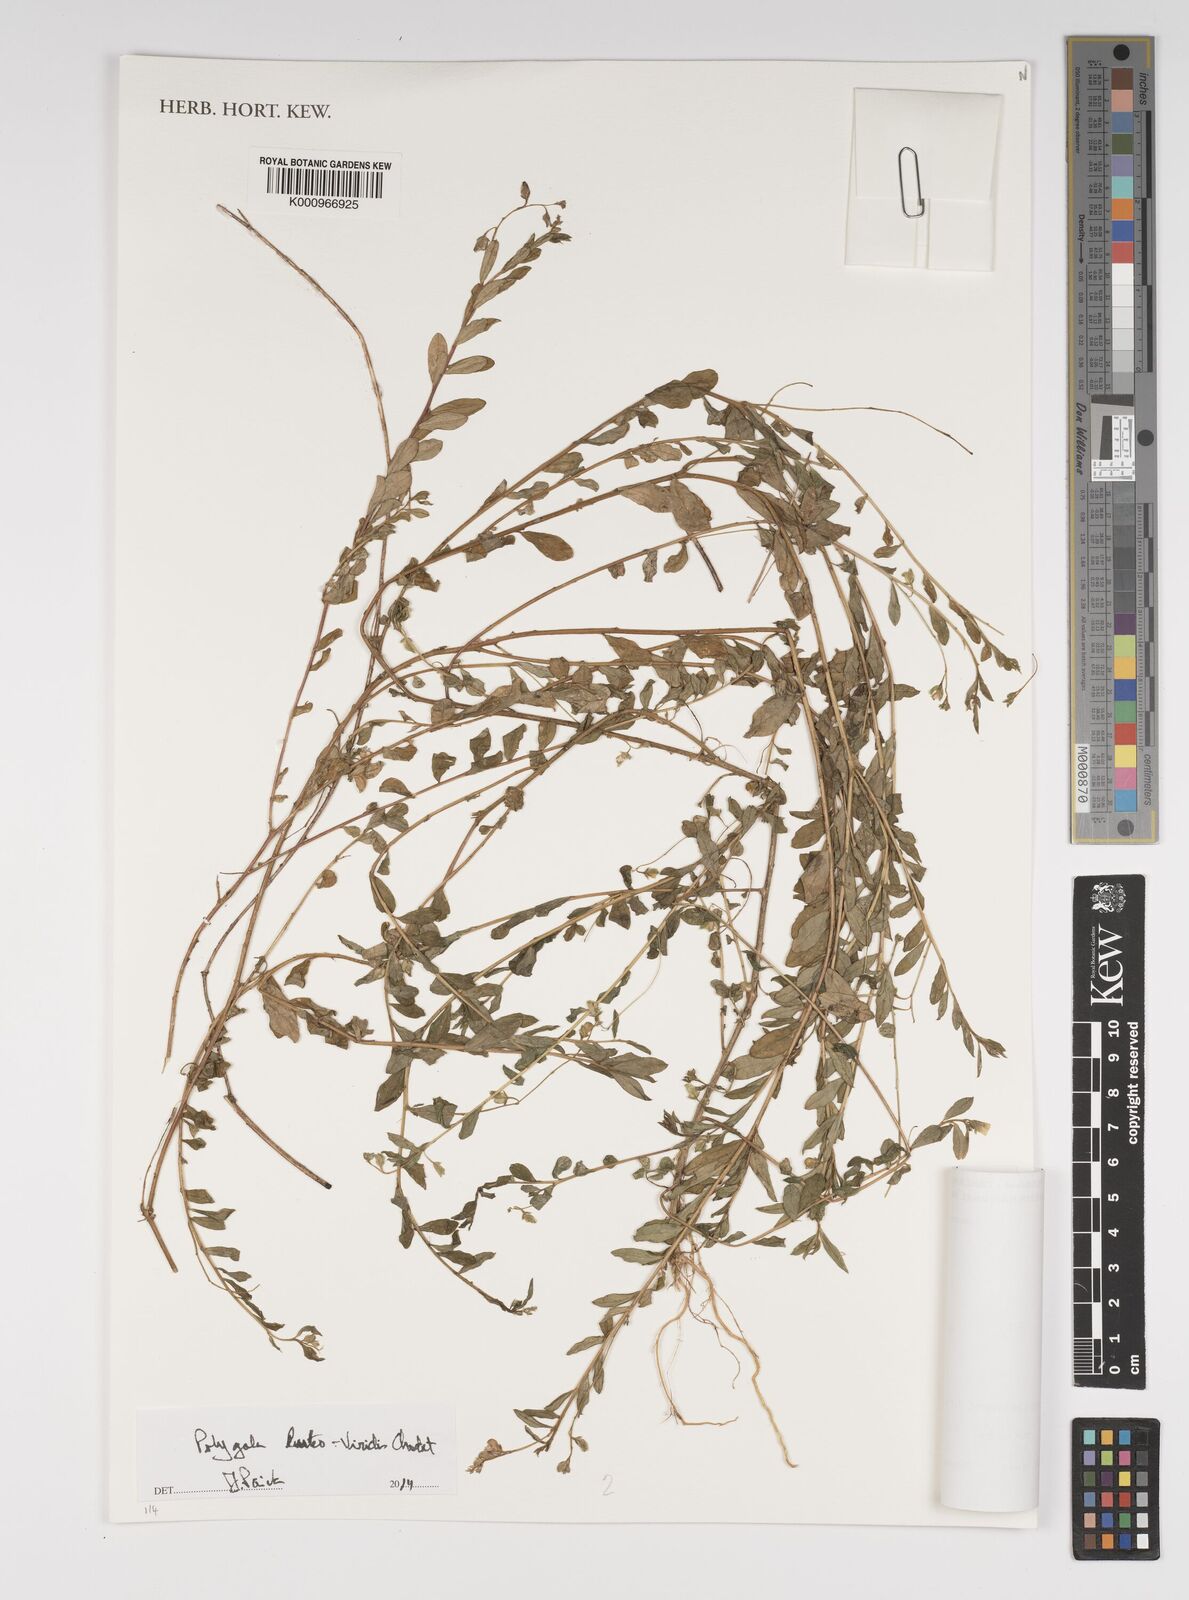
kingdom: Plantae
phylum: Tracheophyta
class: Magnoliopsida
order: Fabales
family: Polygalaceae
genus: Polygala
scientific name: Polygala luteoviridis
